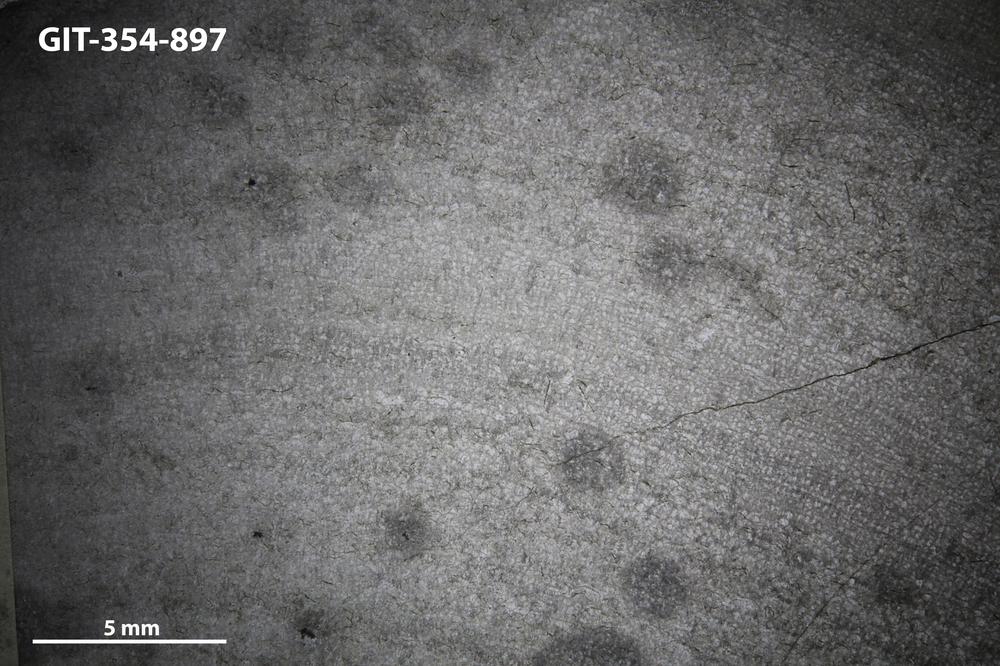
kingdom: Animalia
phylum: Porifera
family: Pseudolabechiidae
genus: Vikingia
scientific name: Vikingia
